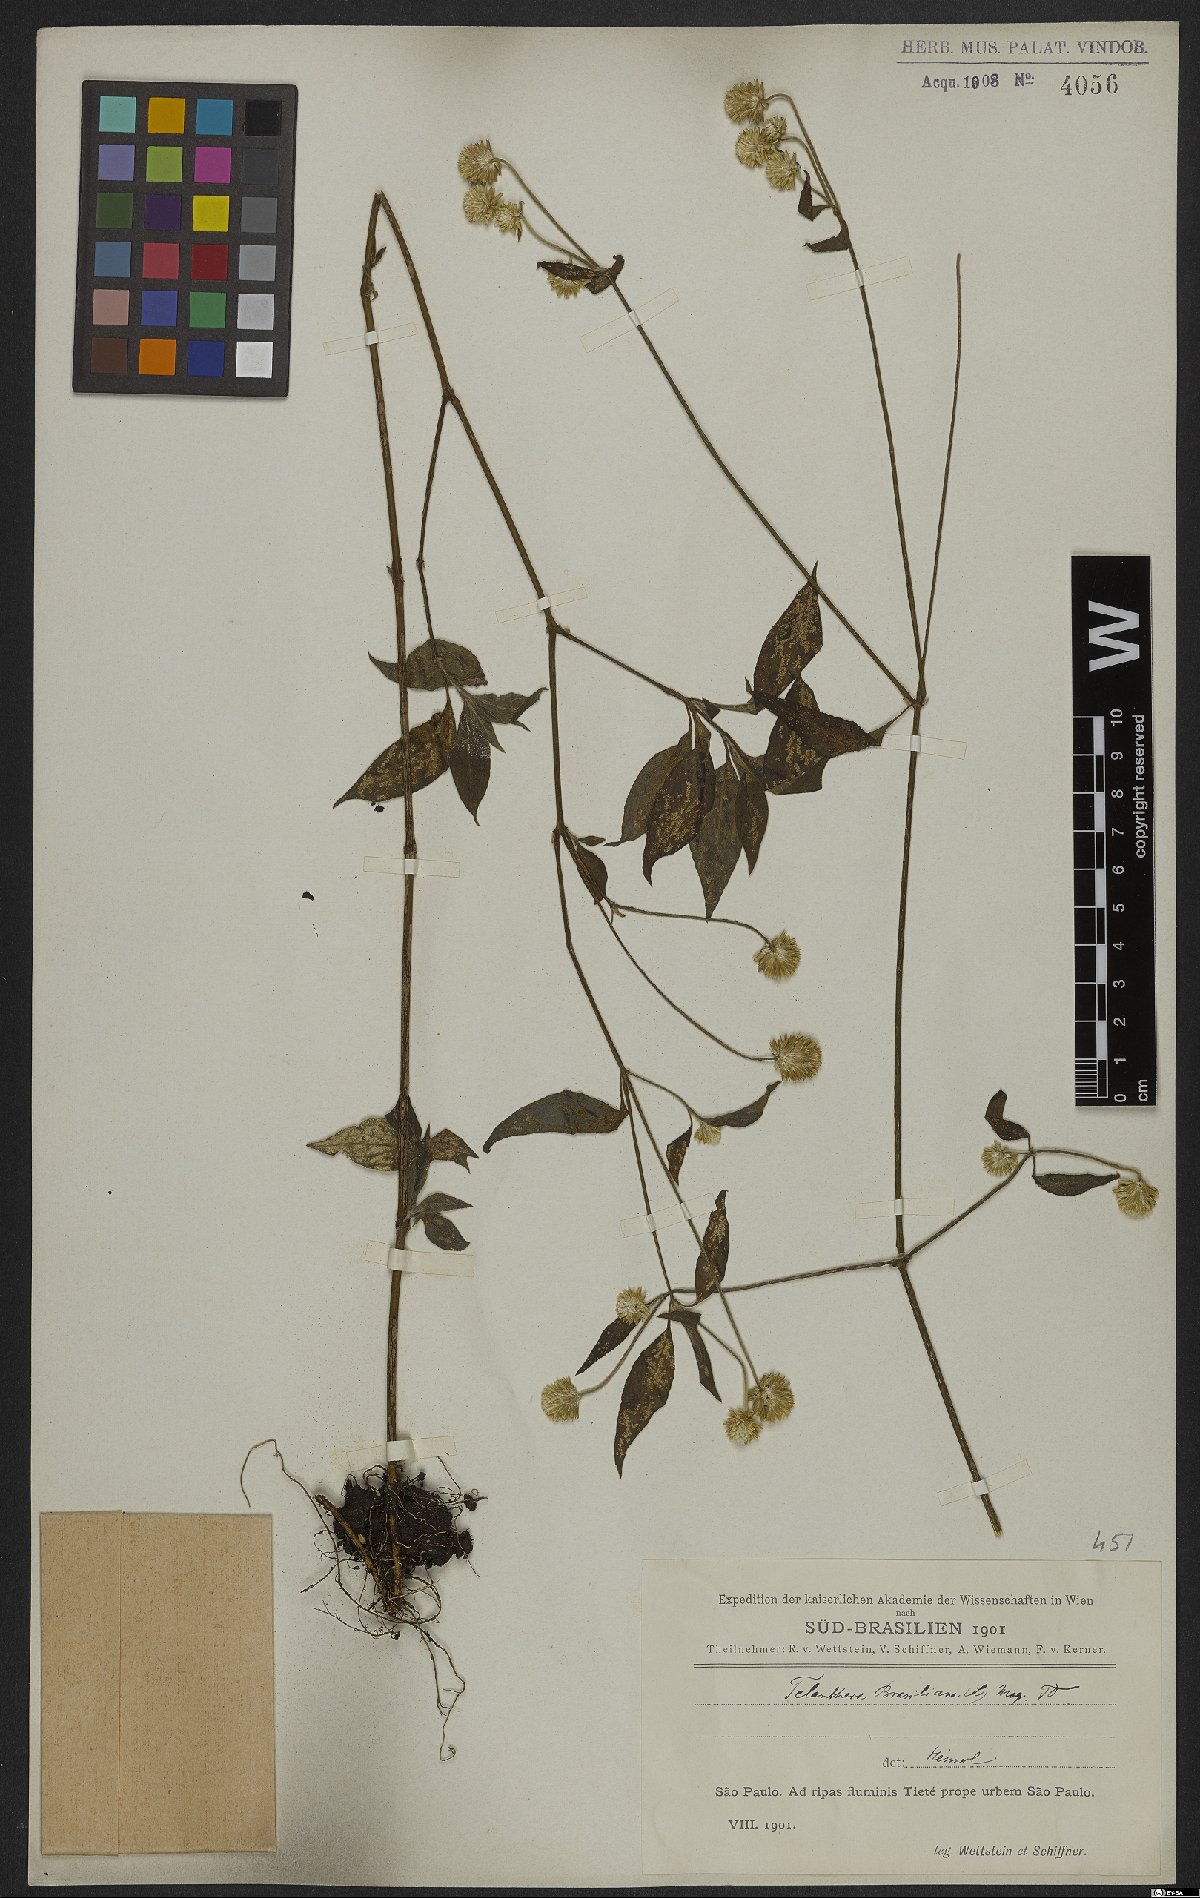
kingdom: Plantae
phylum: Tracheophyta
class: Magnoliopsida
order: Caryophyllales
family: Amaranthaceae
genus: Alternanthera
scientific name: Alternanthera brasiliana
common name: Brazilian joyweed
